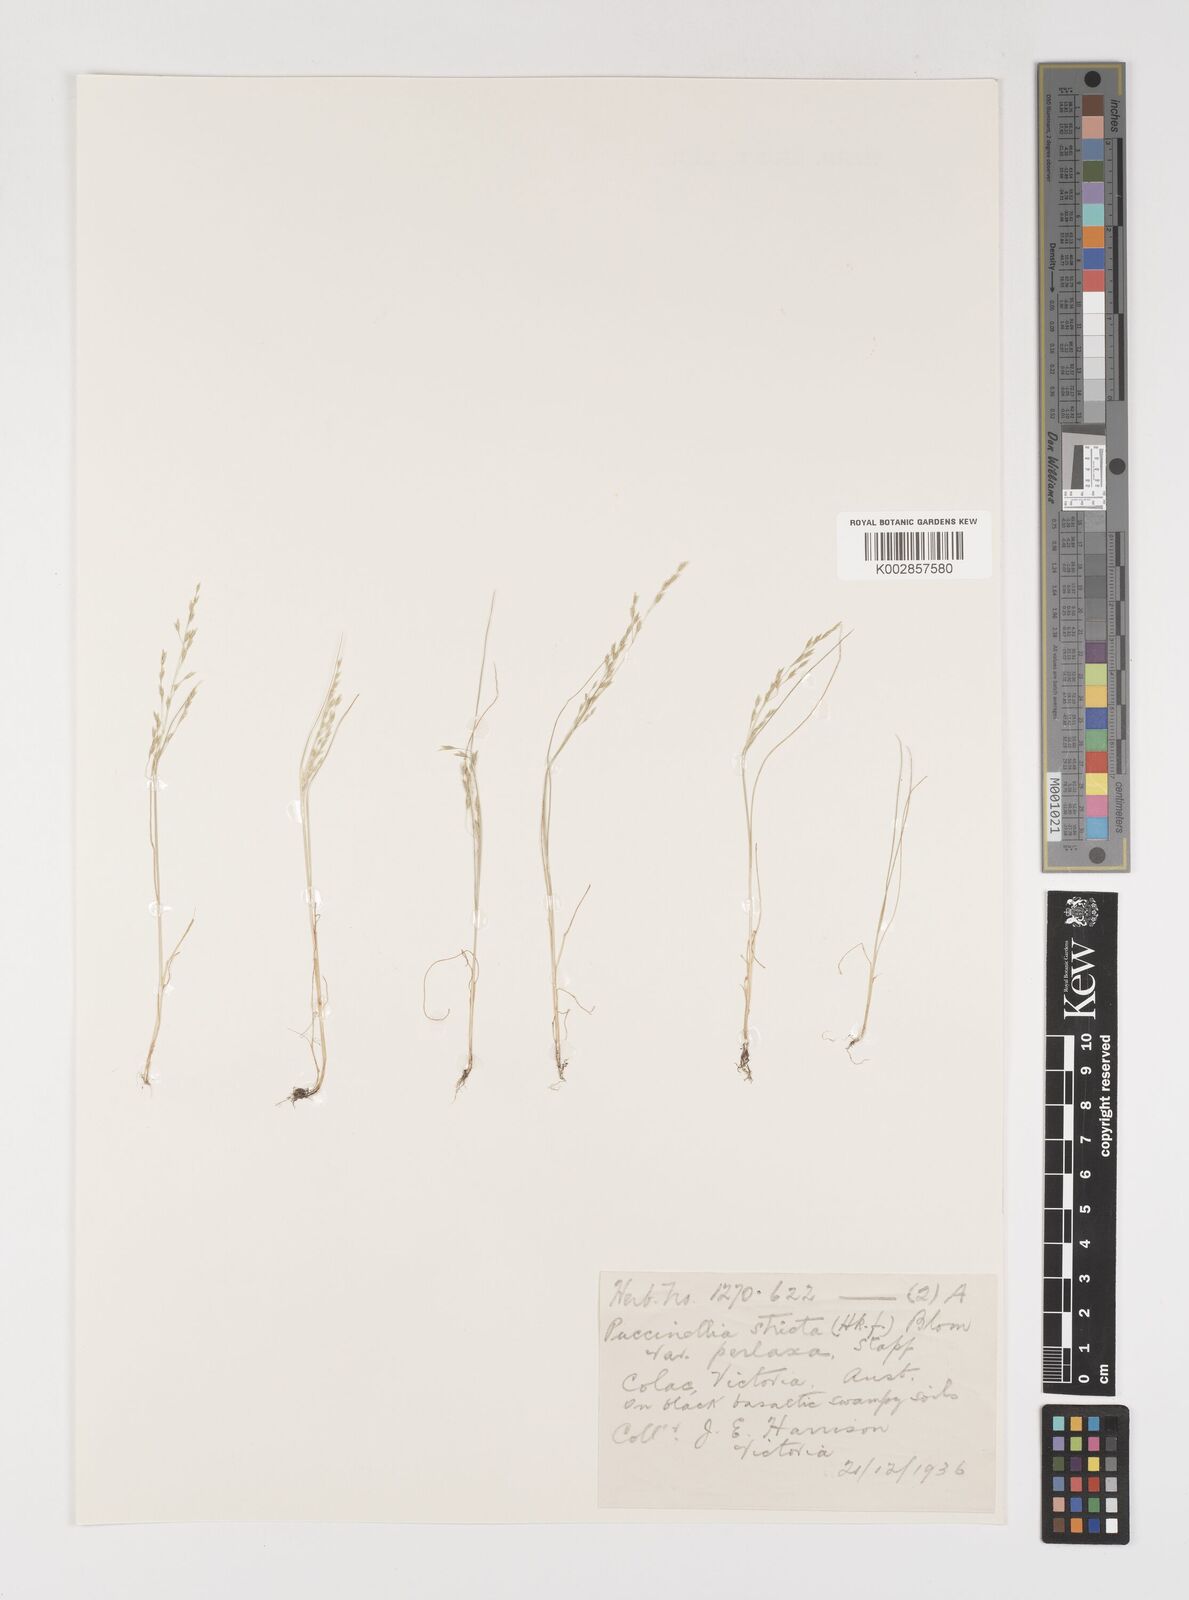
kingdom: Plantae
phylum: Tracheophyta
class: Liliopsida
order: Poales
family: Poaceae
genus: Puccinellia
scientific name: Puccinellia stricta
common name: Australian saltmarsh grass
